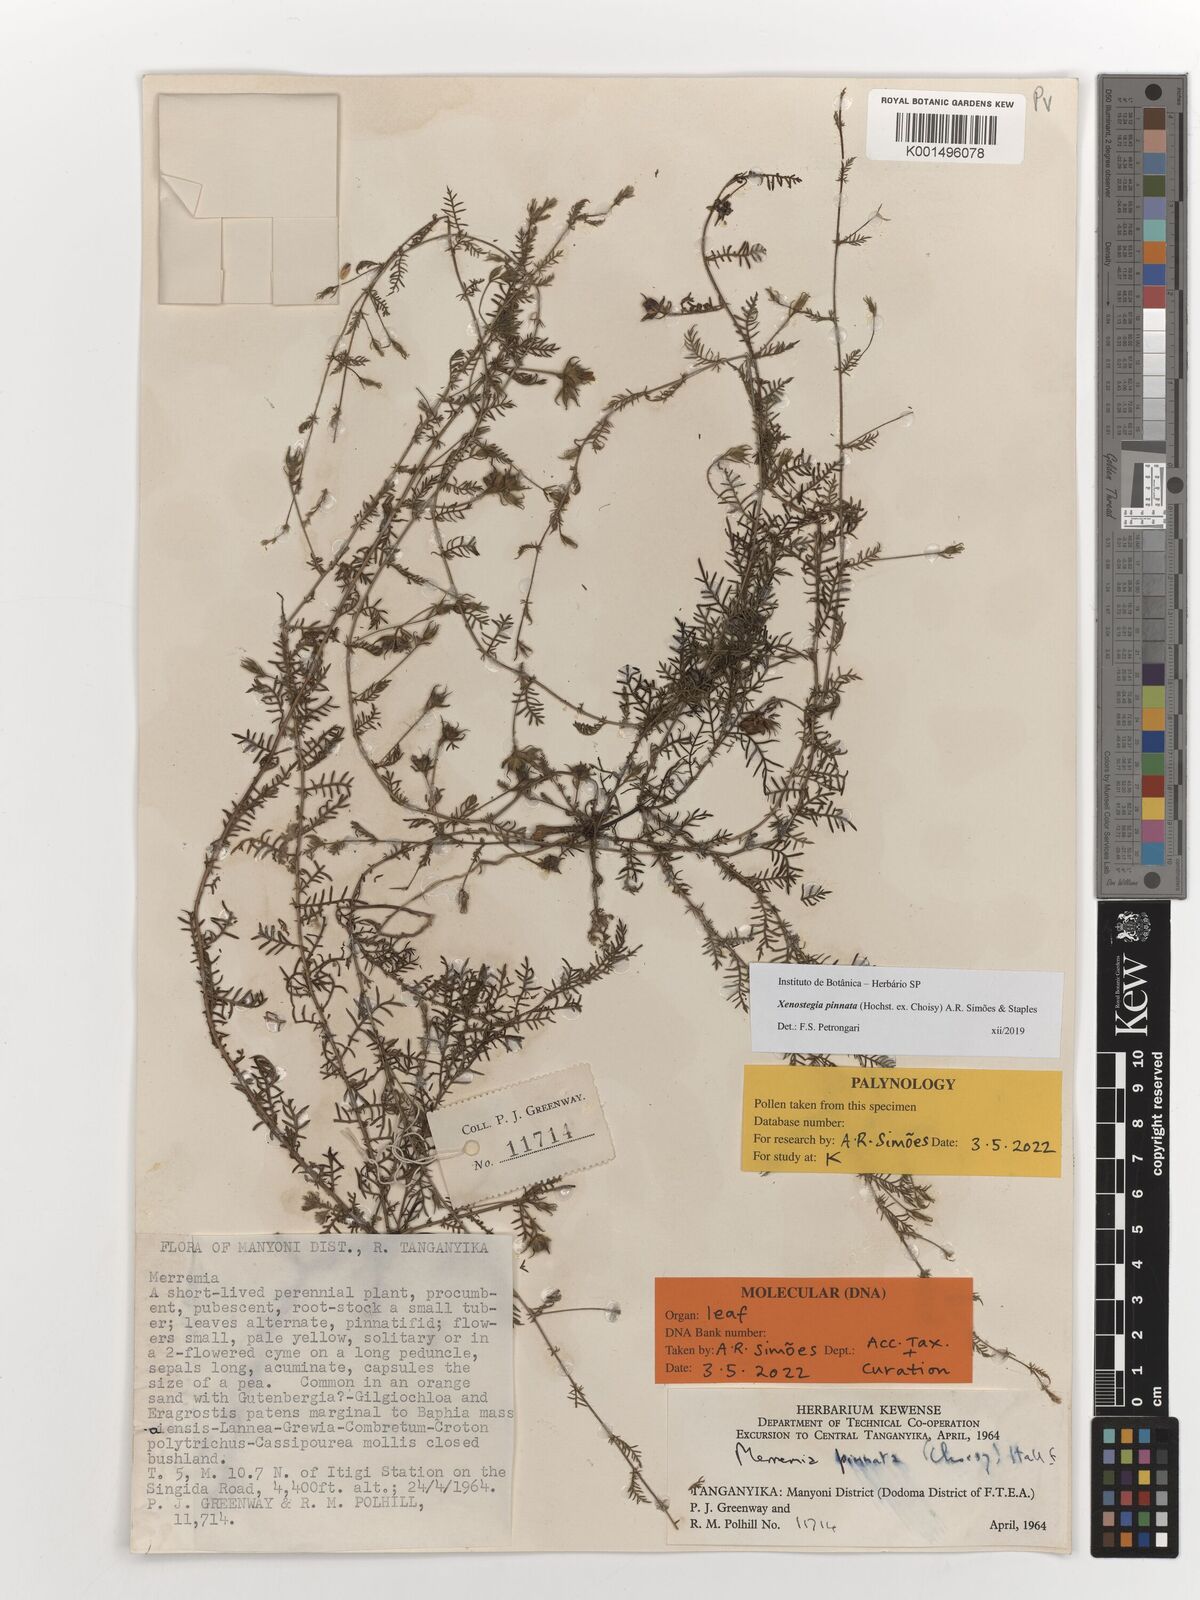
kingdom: Plantae
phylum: Tracheophyta
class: Magnoliopsida
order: Solanales
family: Convolvulaceae
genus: Xenostegia
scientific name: Xenostegia pinnata
